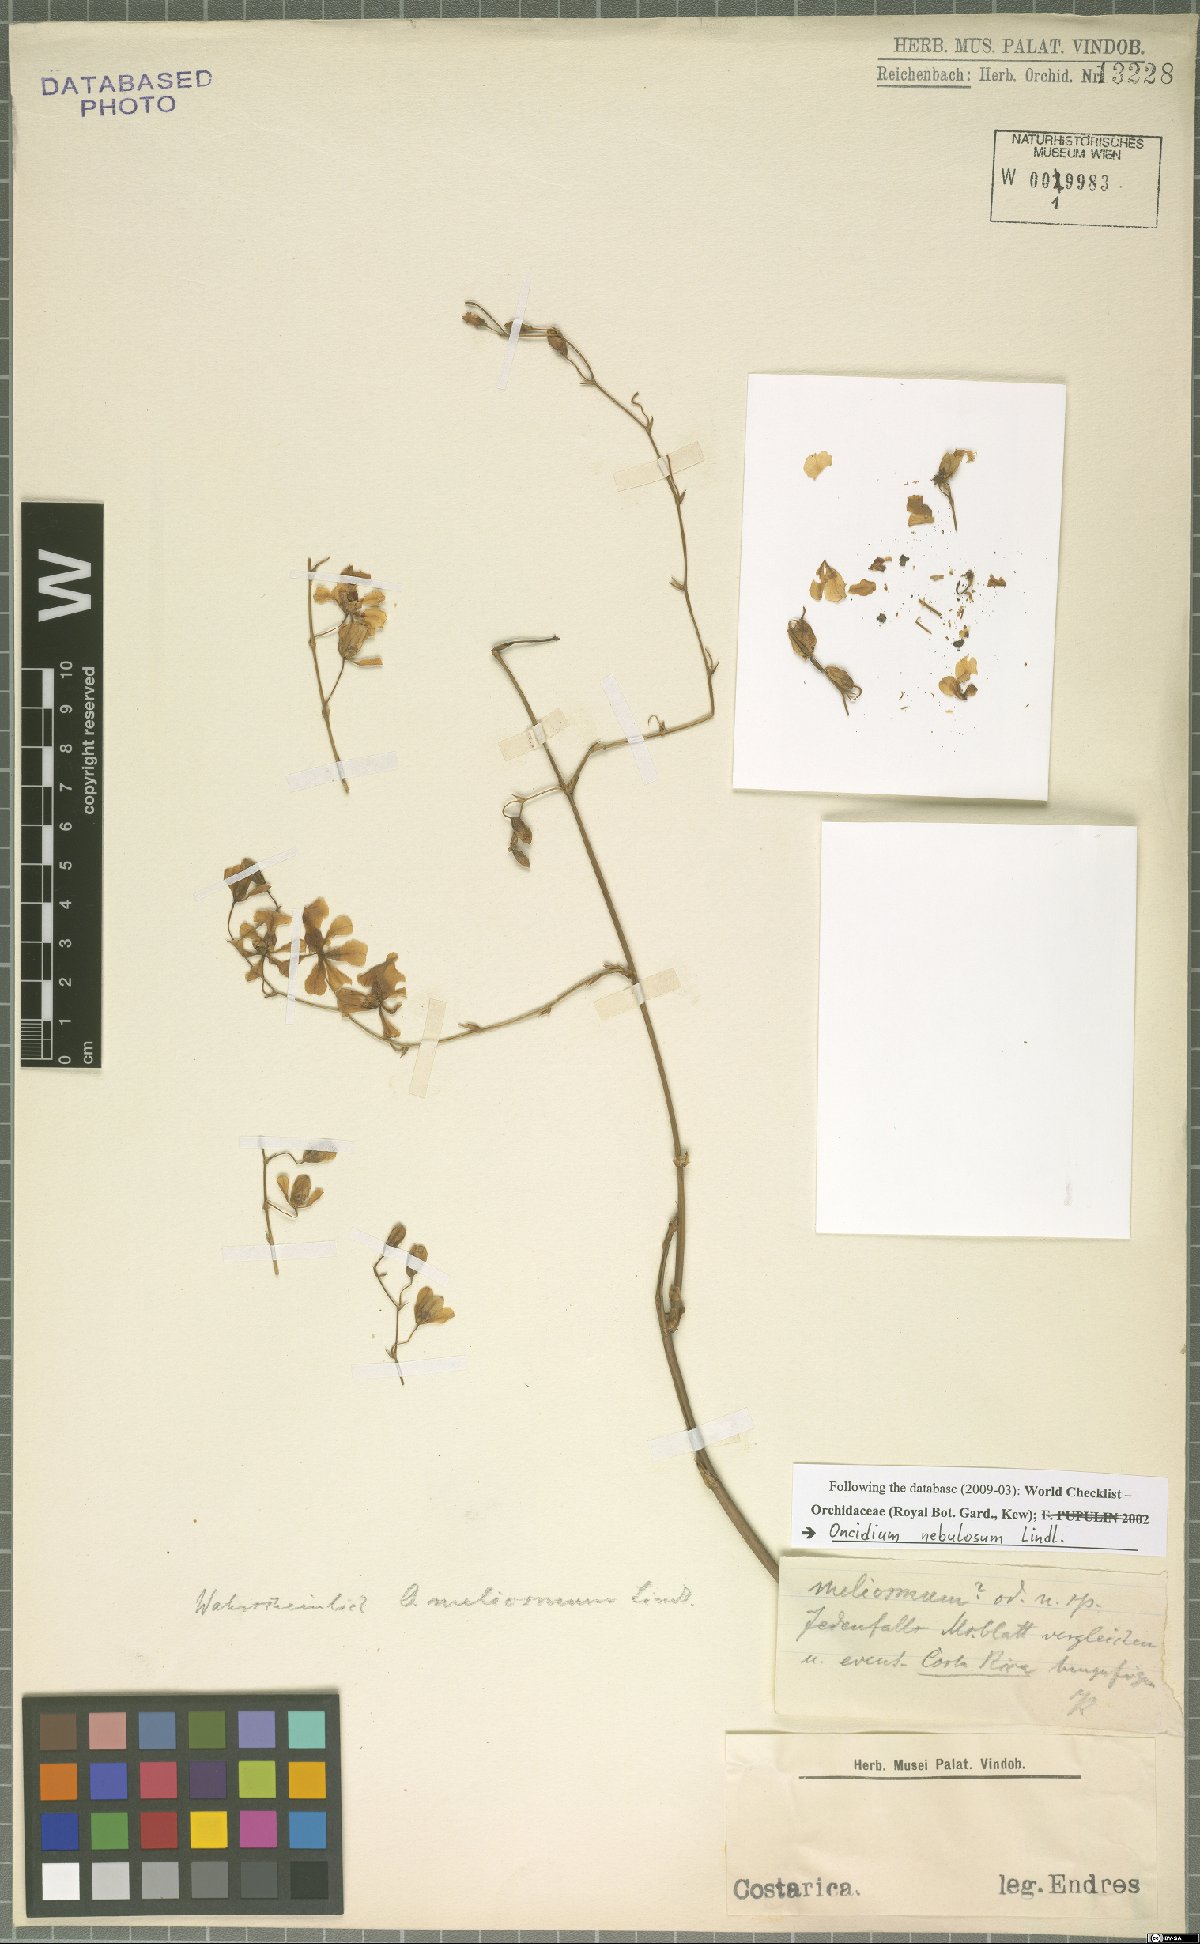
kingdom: Plantae
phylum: Tracheophyta
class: Liliopsida
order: Asparagales
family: Orchidaceae
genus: Oncidium
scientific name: Oncidium nebulosum
